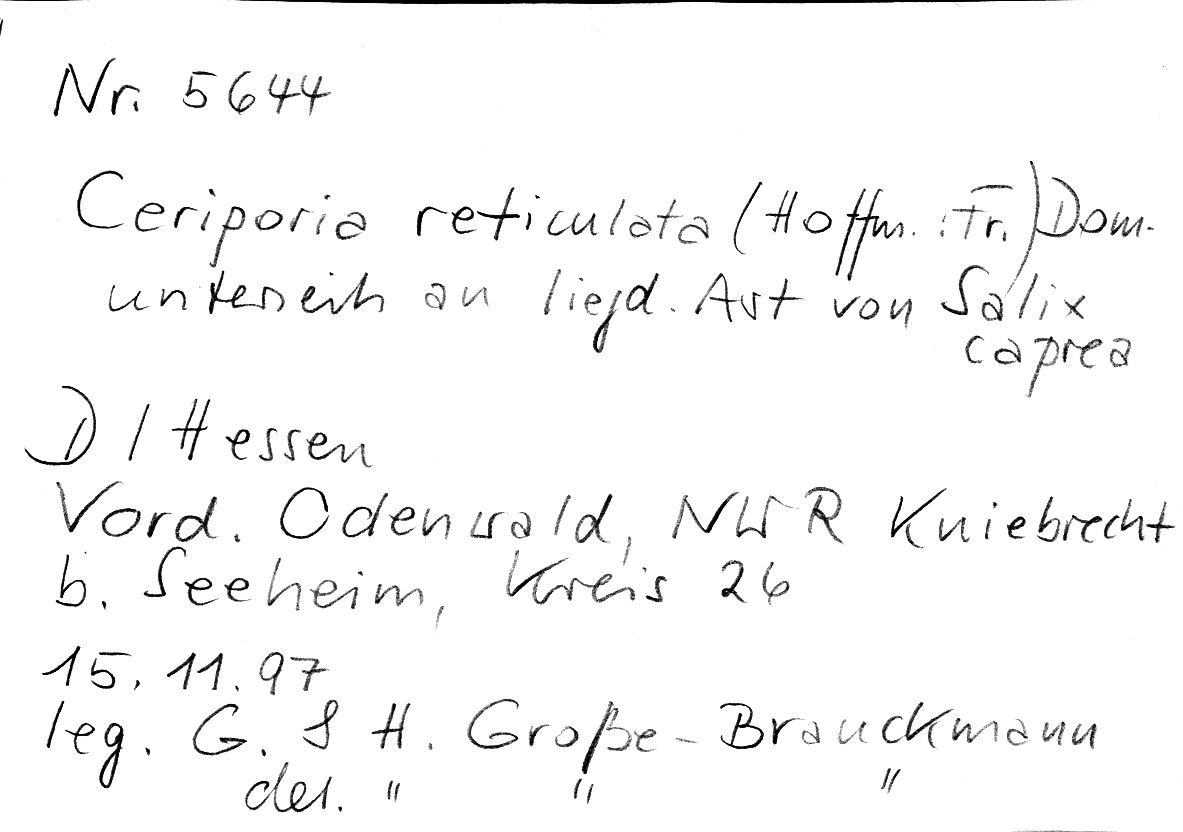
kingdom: Fungi
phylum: Basidiomycota
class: Agaricomycetes
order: Polyporales
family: Irpicaceae
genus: Ceriporia
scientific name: Ceriporia reticulata
